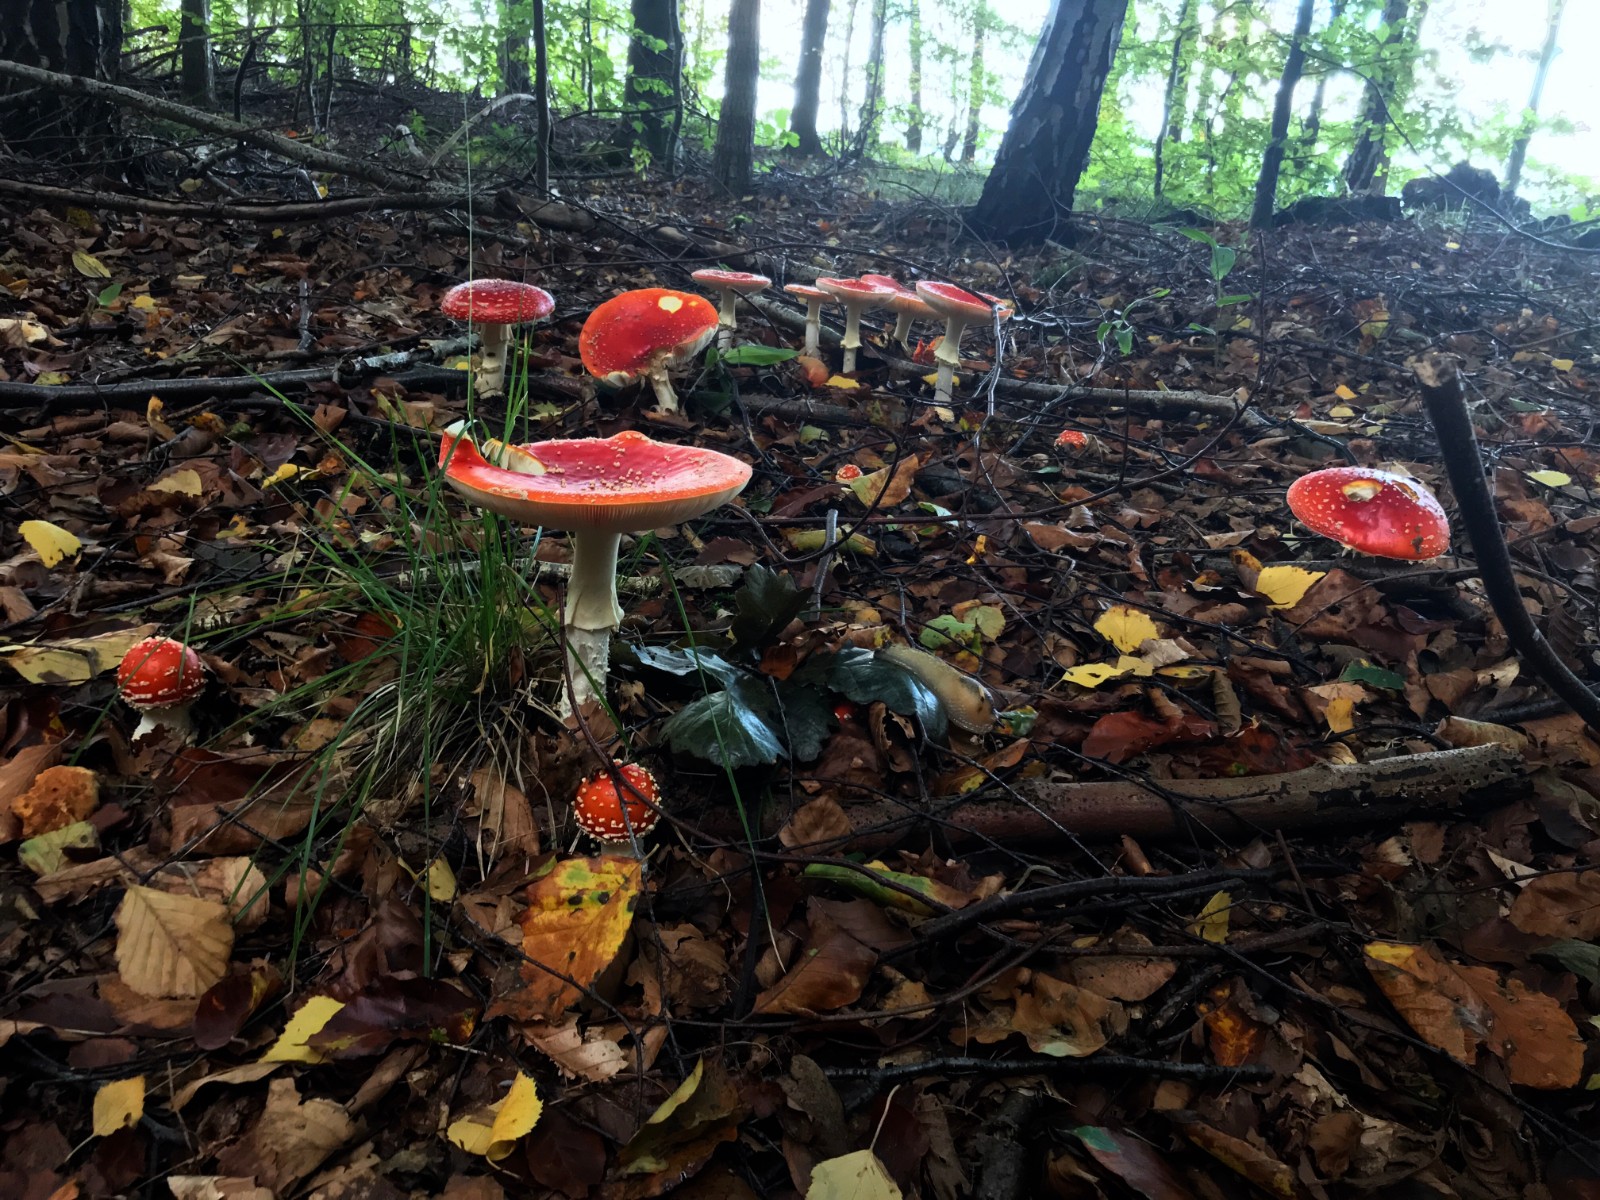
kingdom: Fungi
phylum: Basidiomycota
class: Agaricomycetes
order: Agaricales
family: Amanitaceae
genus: Amanita
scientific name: Amanita muscaria
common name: rød fluesvamp
